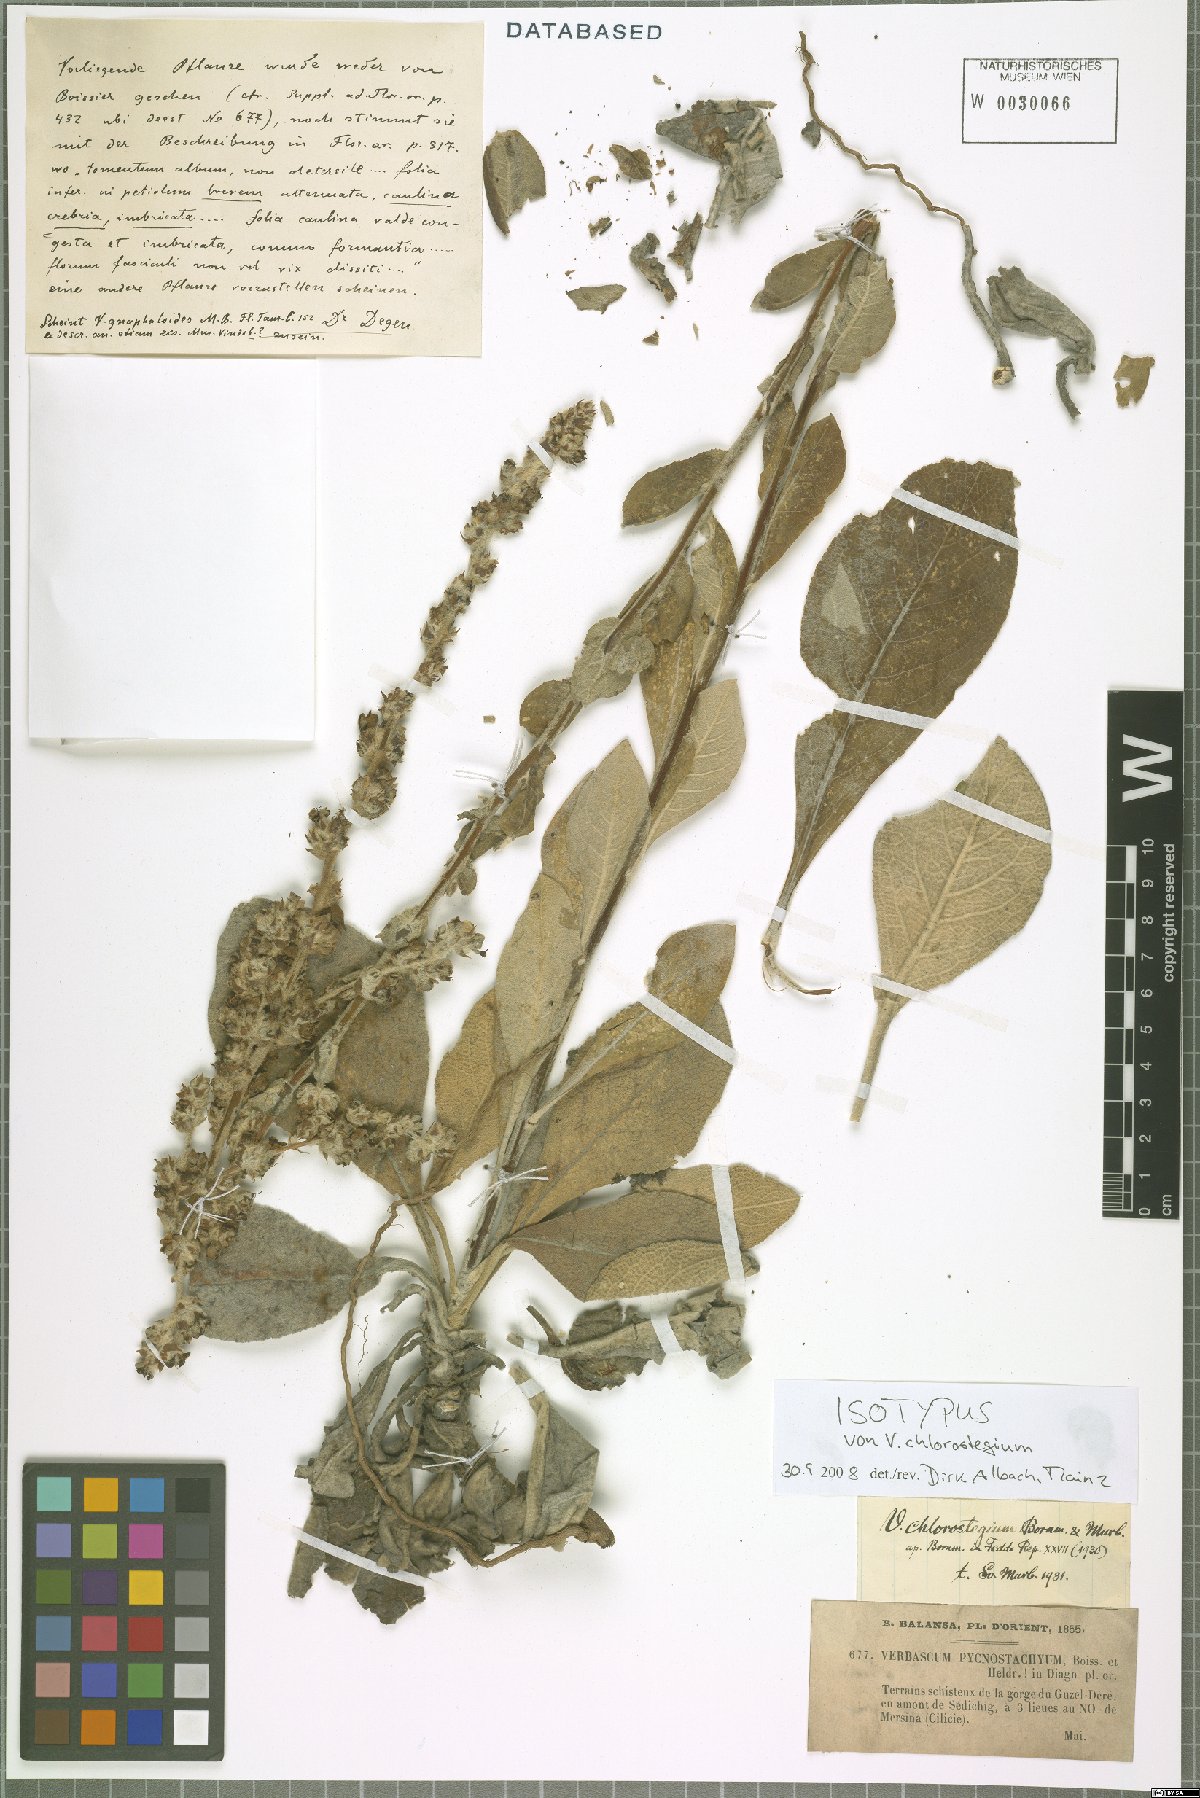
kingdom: Plantae
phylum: Tracheophyta
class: Magnoliopsida
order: Lamiales
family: Scrophulariaceae
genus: Verbascum
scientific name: Verbascum chlorostegium
